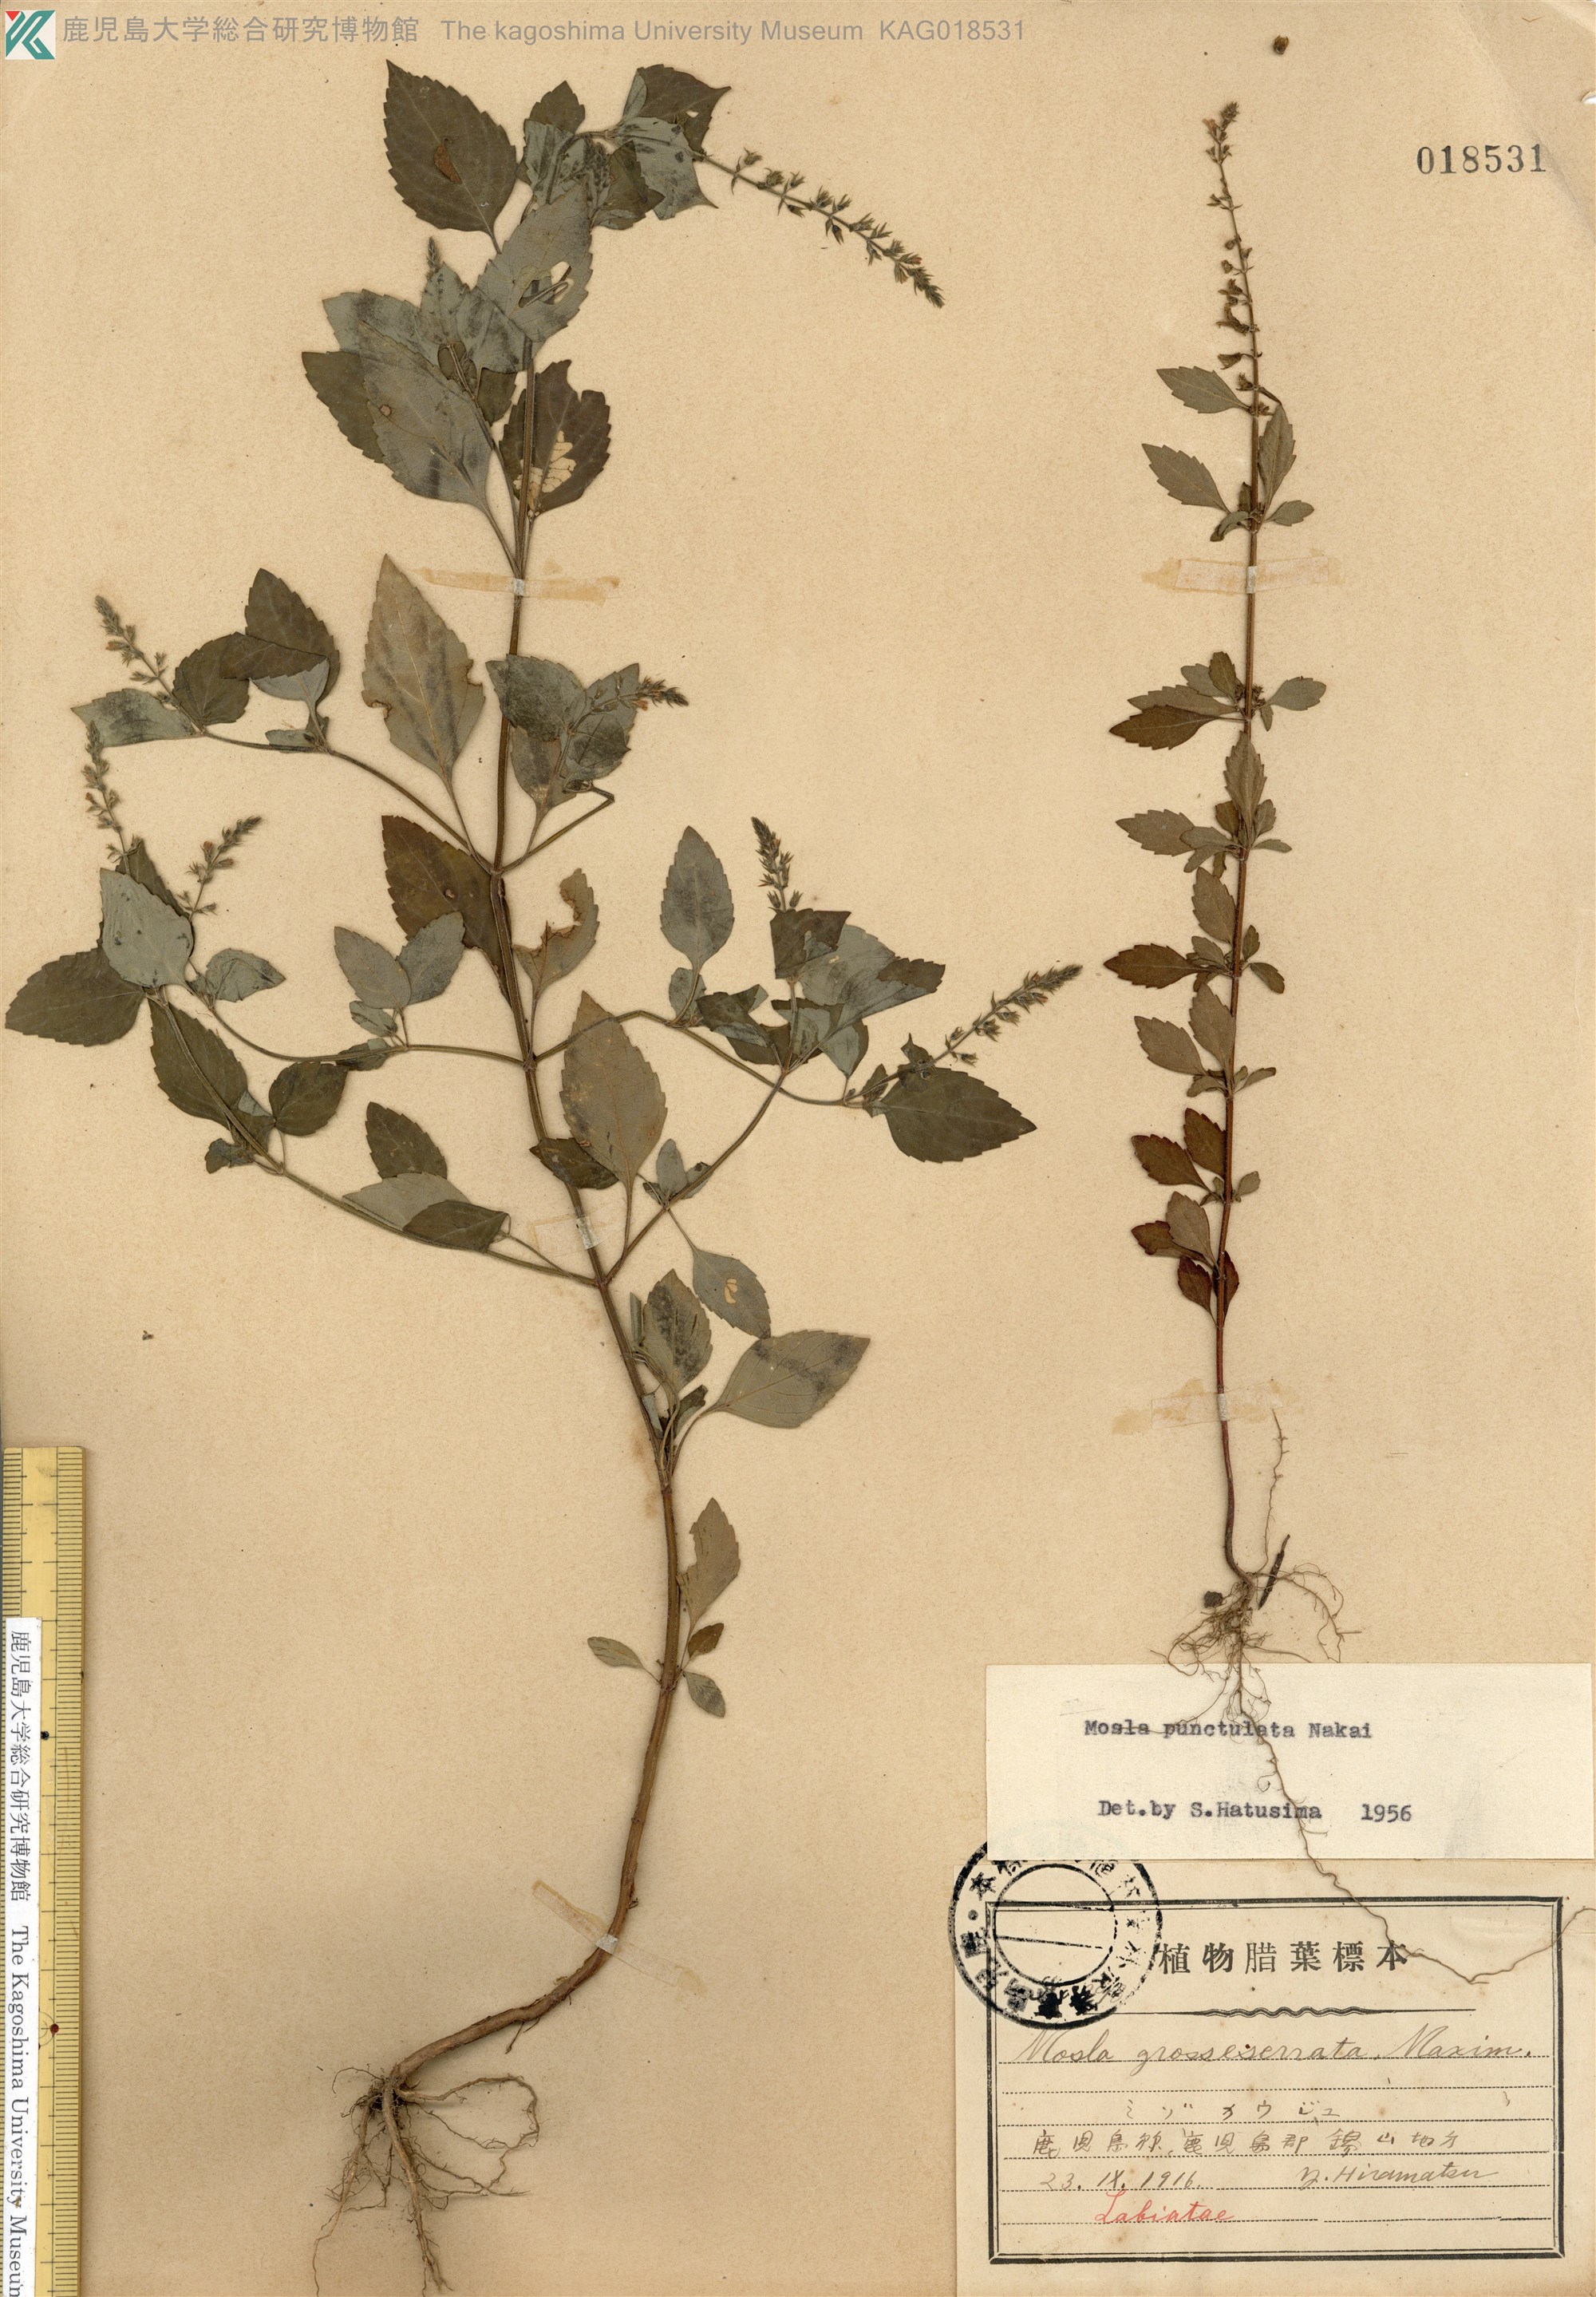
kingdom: Plantae
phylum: Tracheophyta
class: Magnoliopsida
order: Lamiales
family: Lamiaceae
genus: Mosla
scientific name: Mosla scabra
